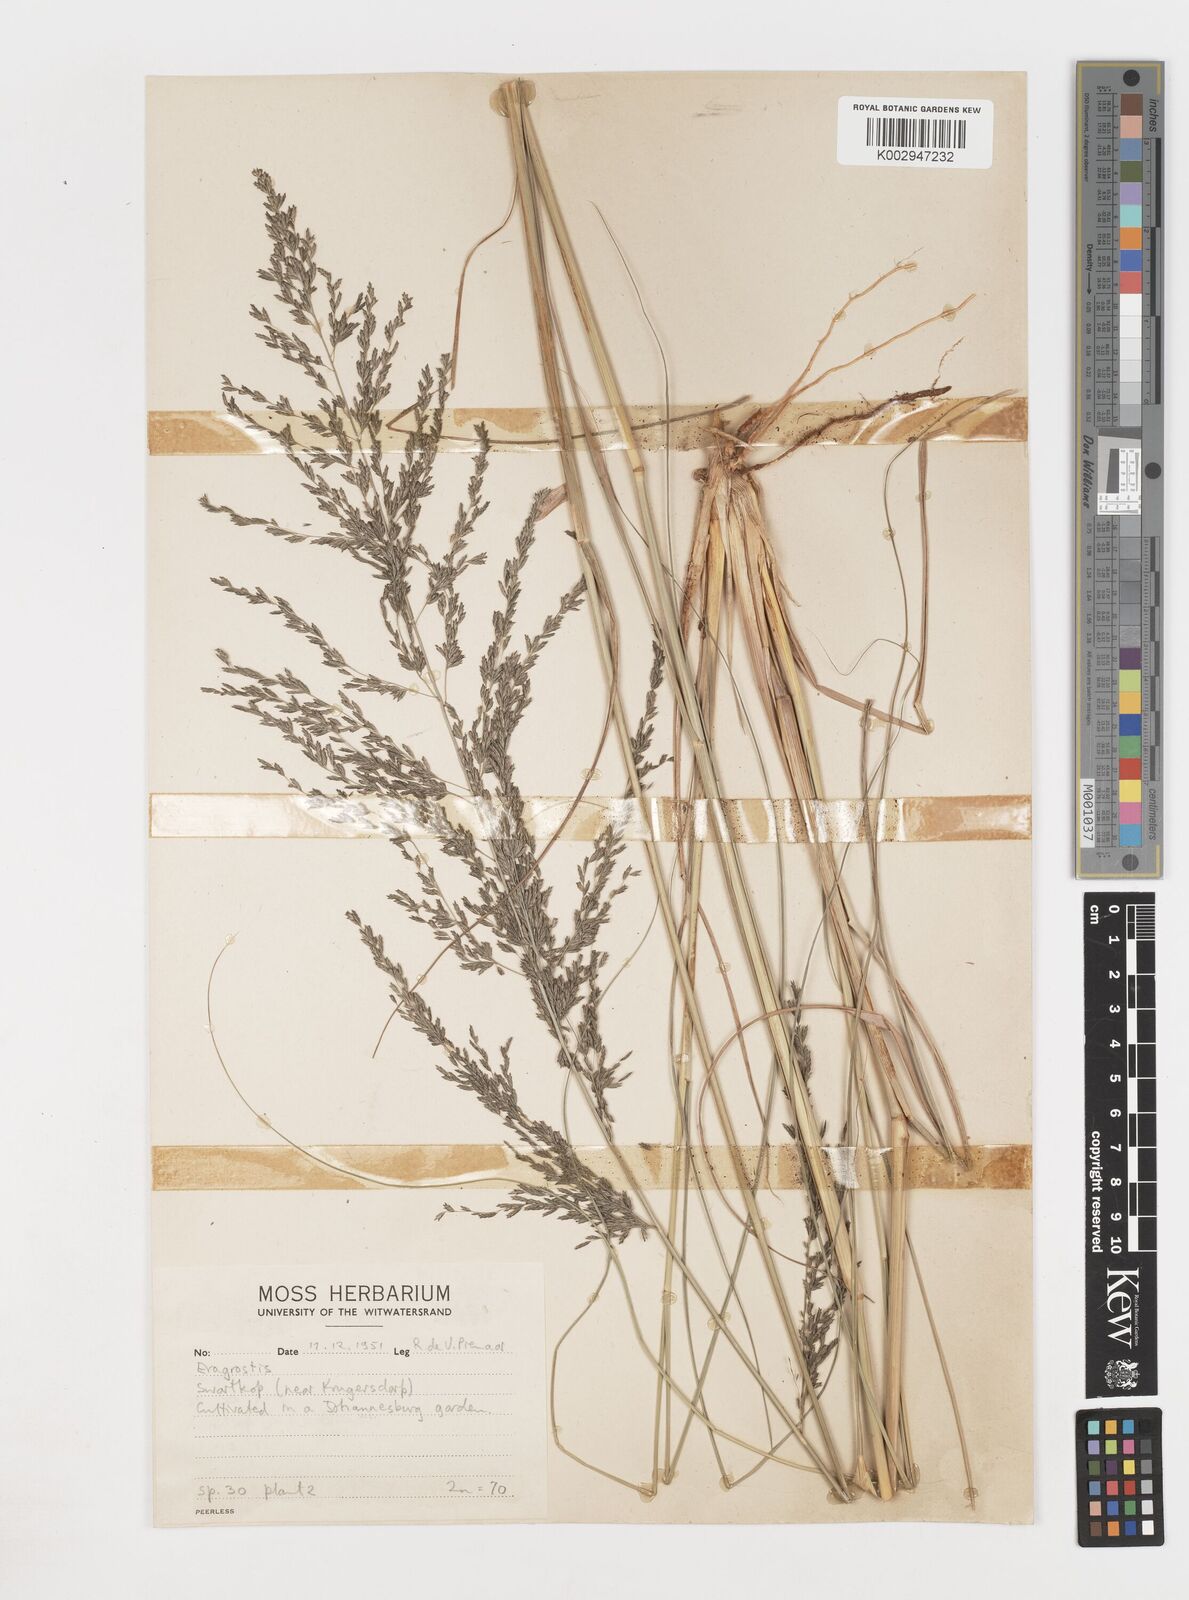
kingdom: Plantae
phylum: Tracheophyta
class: Liliopsida
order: Poales
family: Poaceae
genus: Eragrostis
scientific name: Eragrostis
